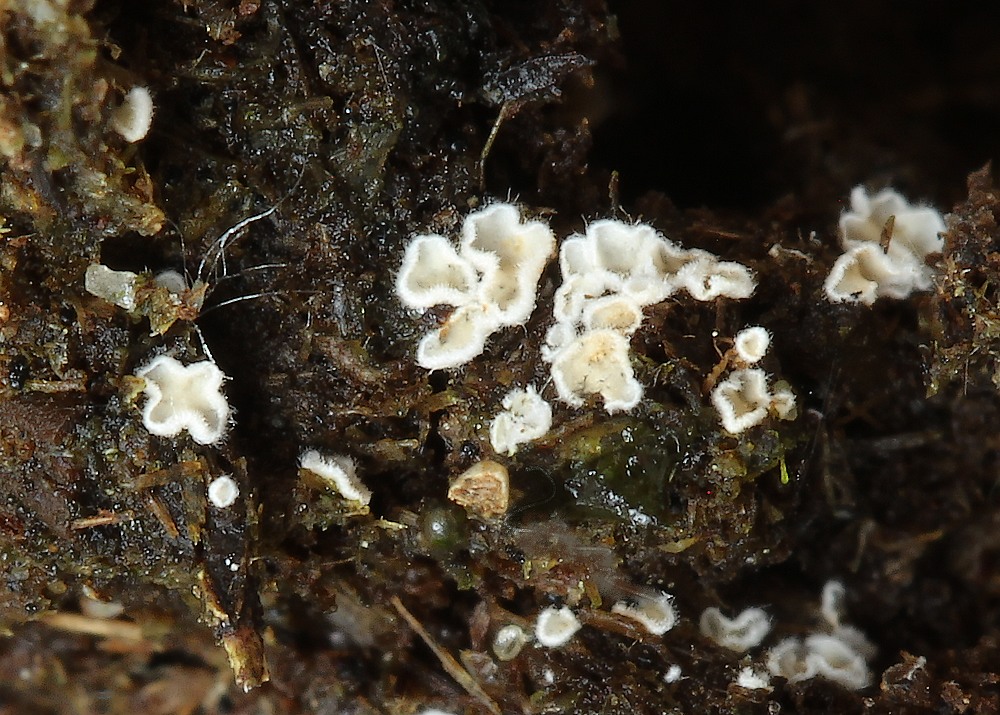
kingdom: Fungi
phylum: Basidiomycota
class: Agaricomycetes
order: Agaricales
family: Crepidotaceae
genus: Pellidiscus
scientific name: Pellidiscus pallidus
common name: skålformet muslingesvamp
